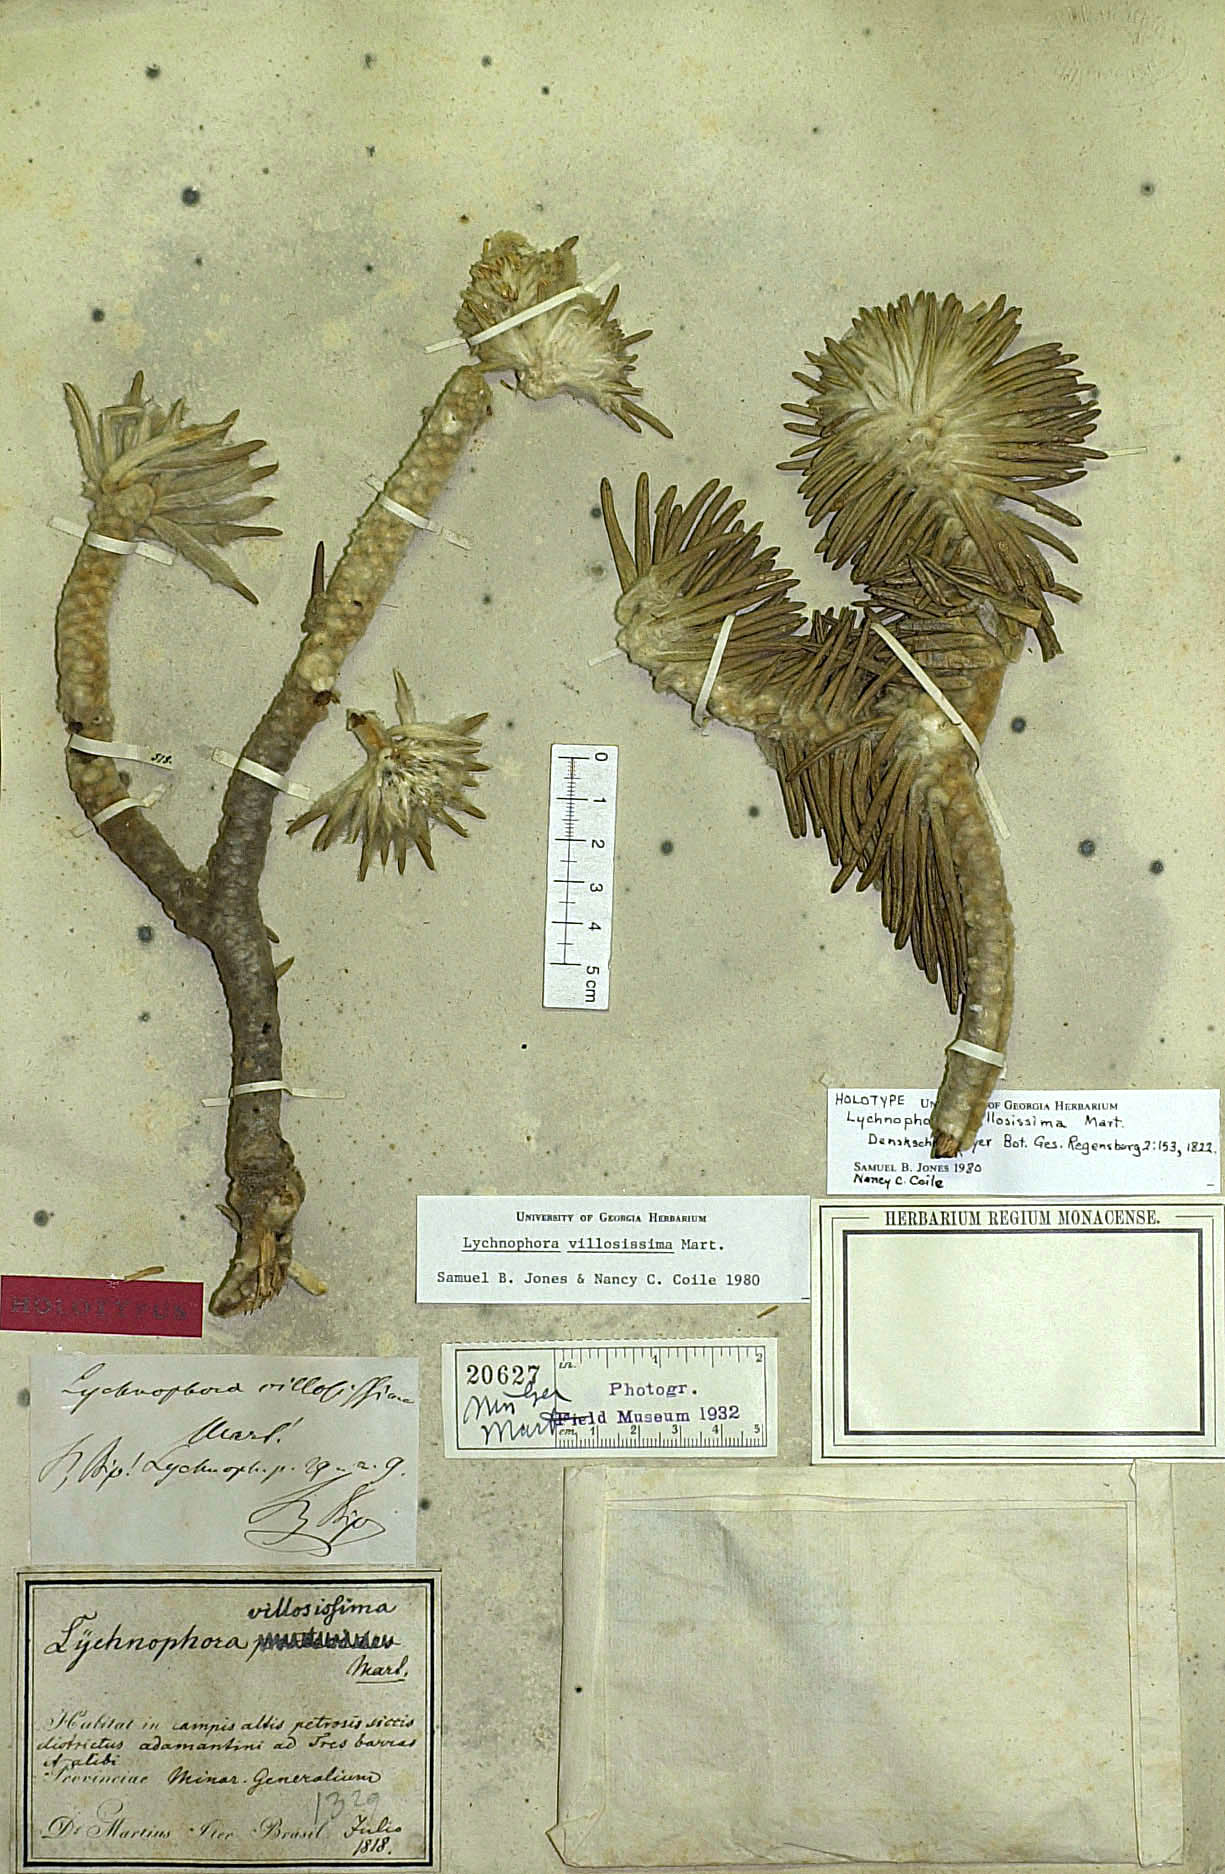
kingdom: Plantae
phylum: Tracheophyta
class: Magnoliopsida
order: Asterales
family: Asteraceae
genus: Lychnophora
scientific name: Lychnophora villosissima
